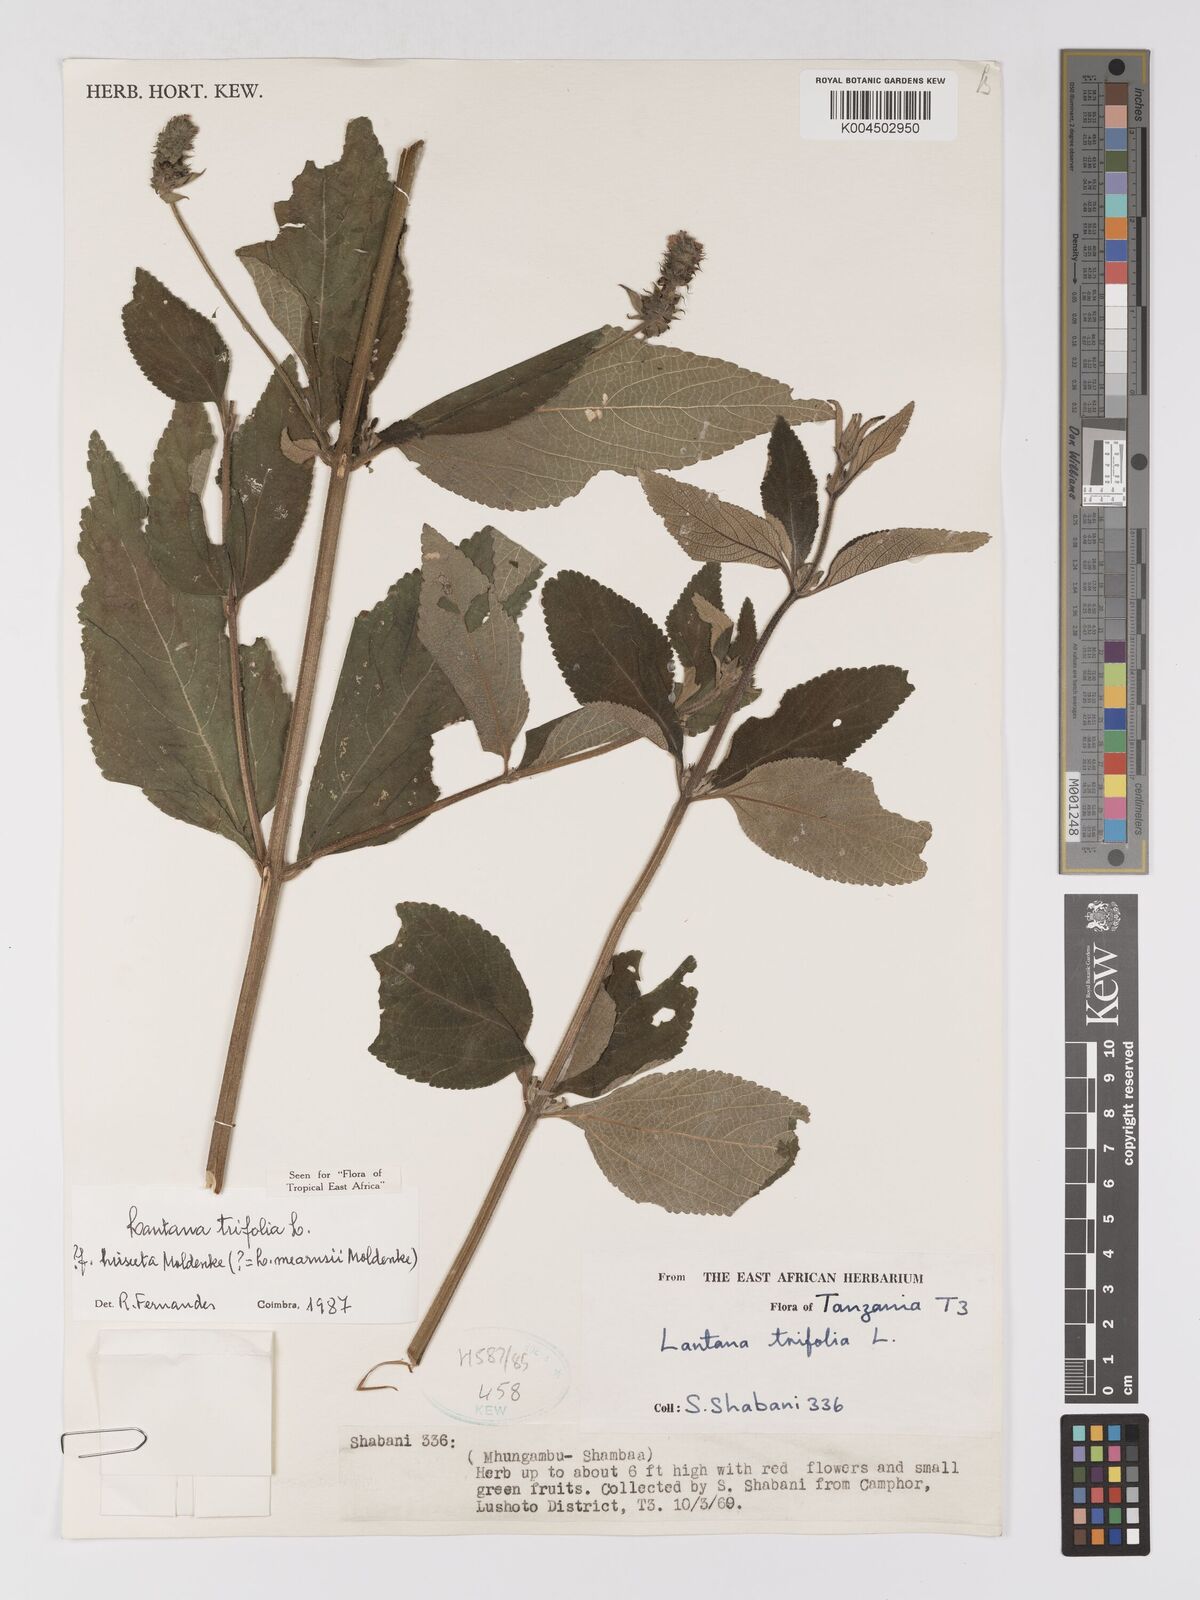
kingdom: Plantae
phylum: Tracheophyta
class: Magnoliopsida
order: Lamiales
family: Verbenaceae
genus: Lantana
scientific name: Lantana trifolia
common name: Sweet-sage
